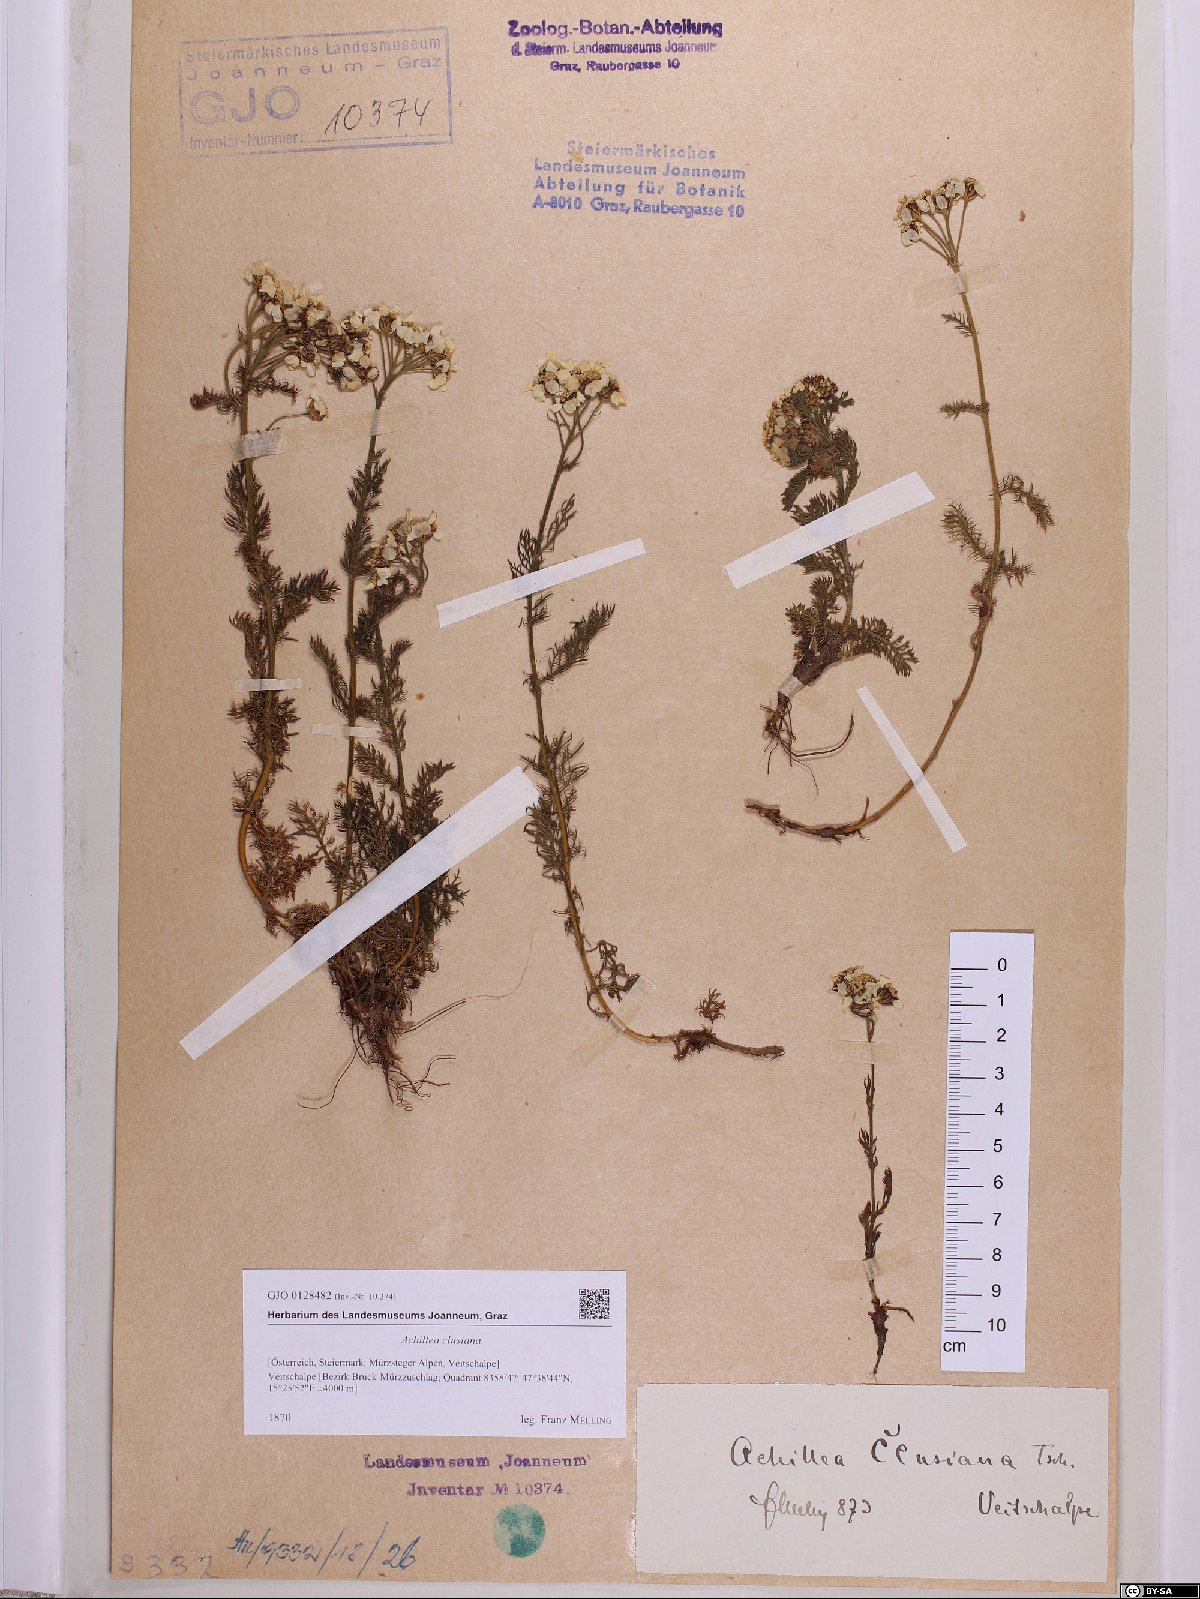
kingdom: Plantae
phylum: Tracheophyta
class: Magnoliopsida
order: Asterales
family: Asteraceae
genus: Achillea
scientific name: Achillea clusiana
